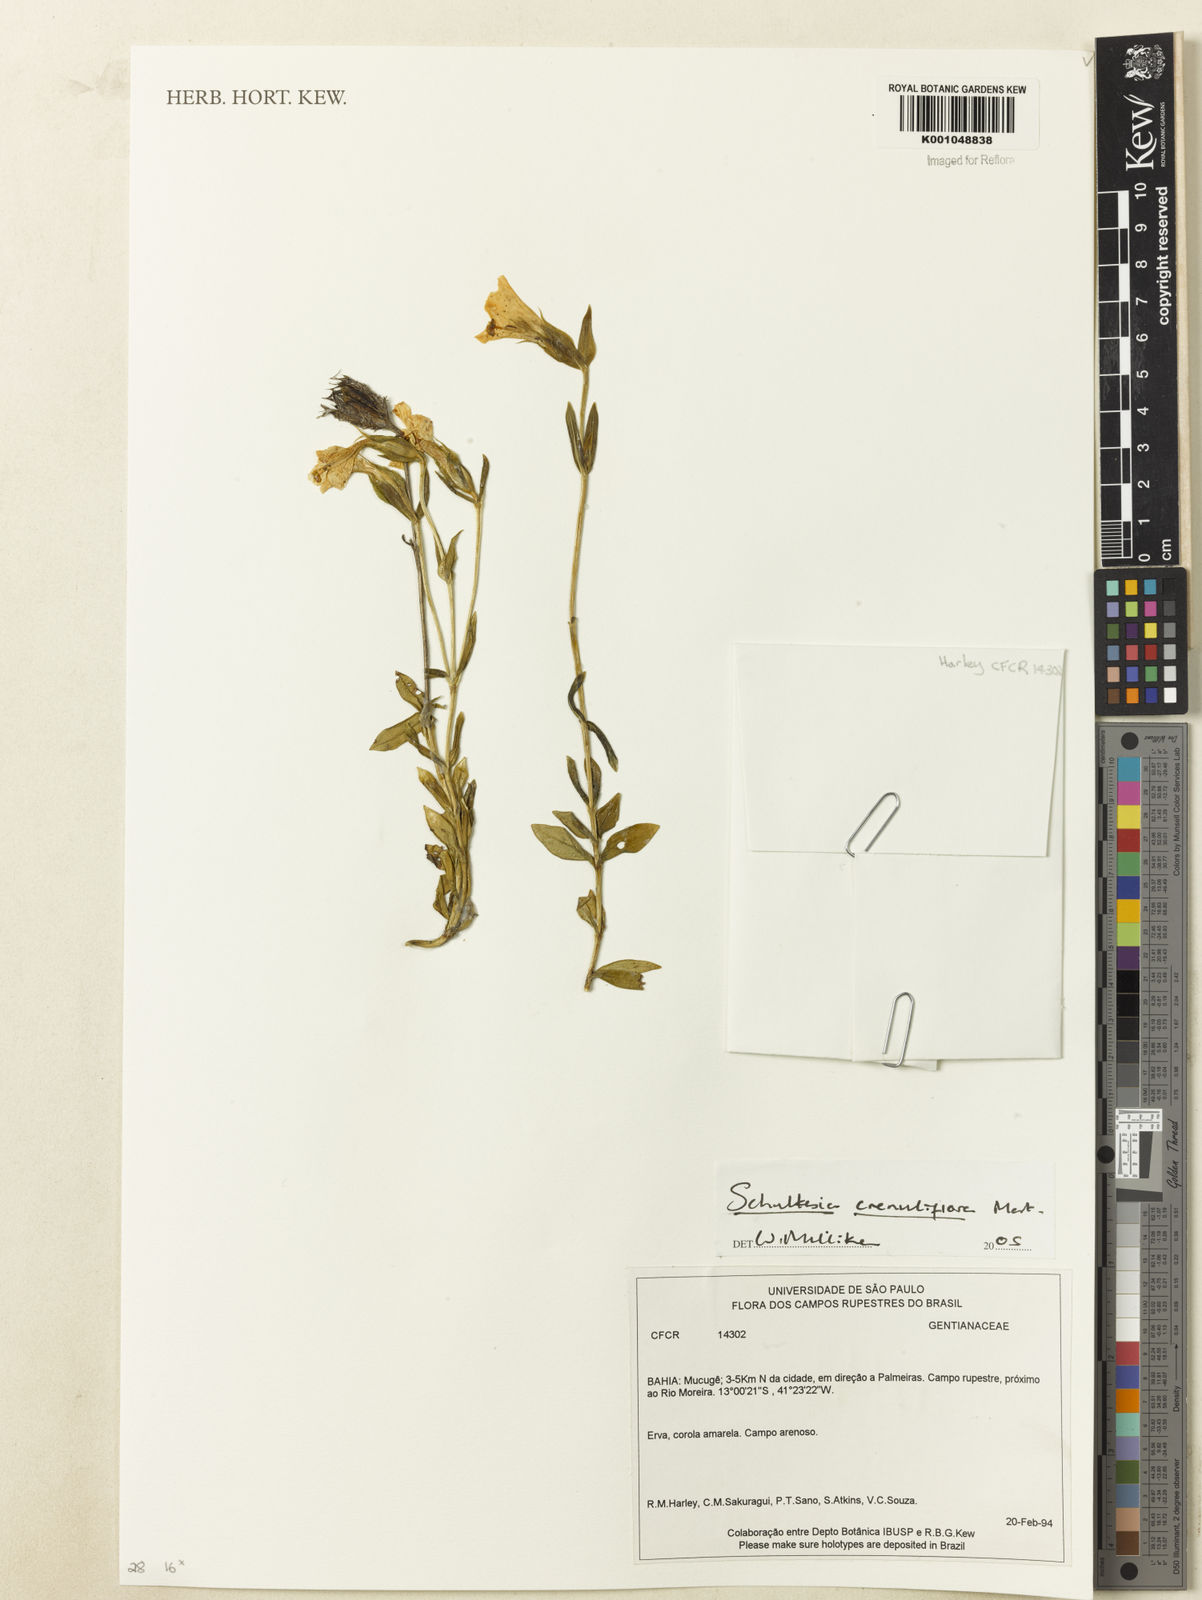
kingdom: Plantae
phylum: Tracheophyta
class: Magnoliopsida
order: Gentianales
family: Gentianaceae
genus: Schultesia
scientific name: Schultesia crenuliflora
